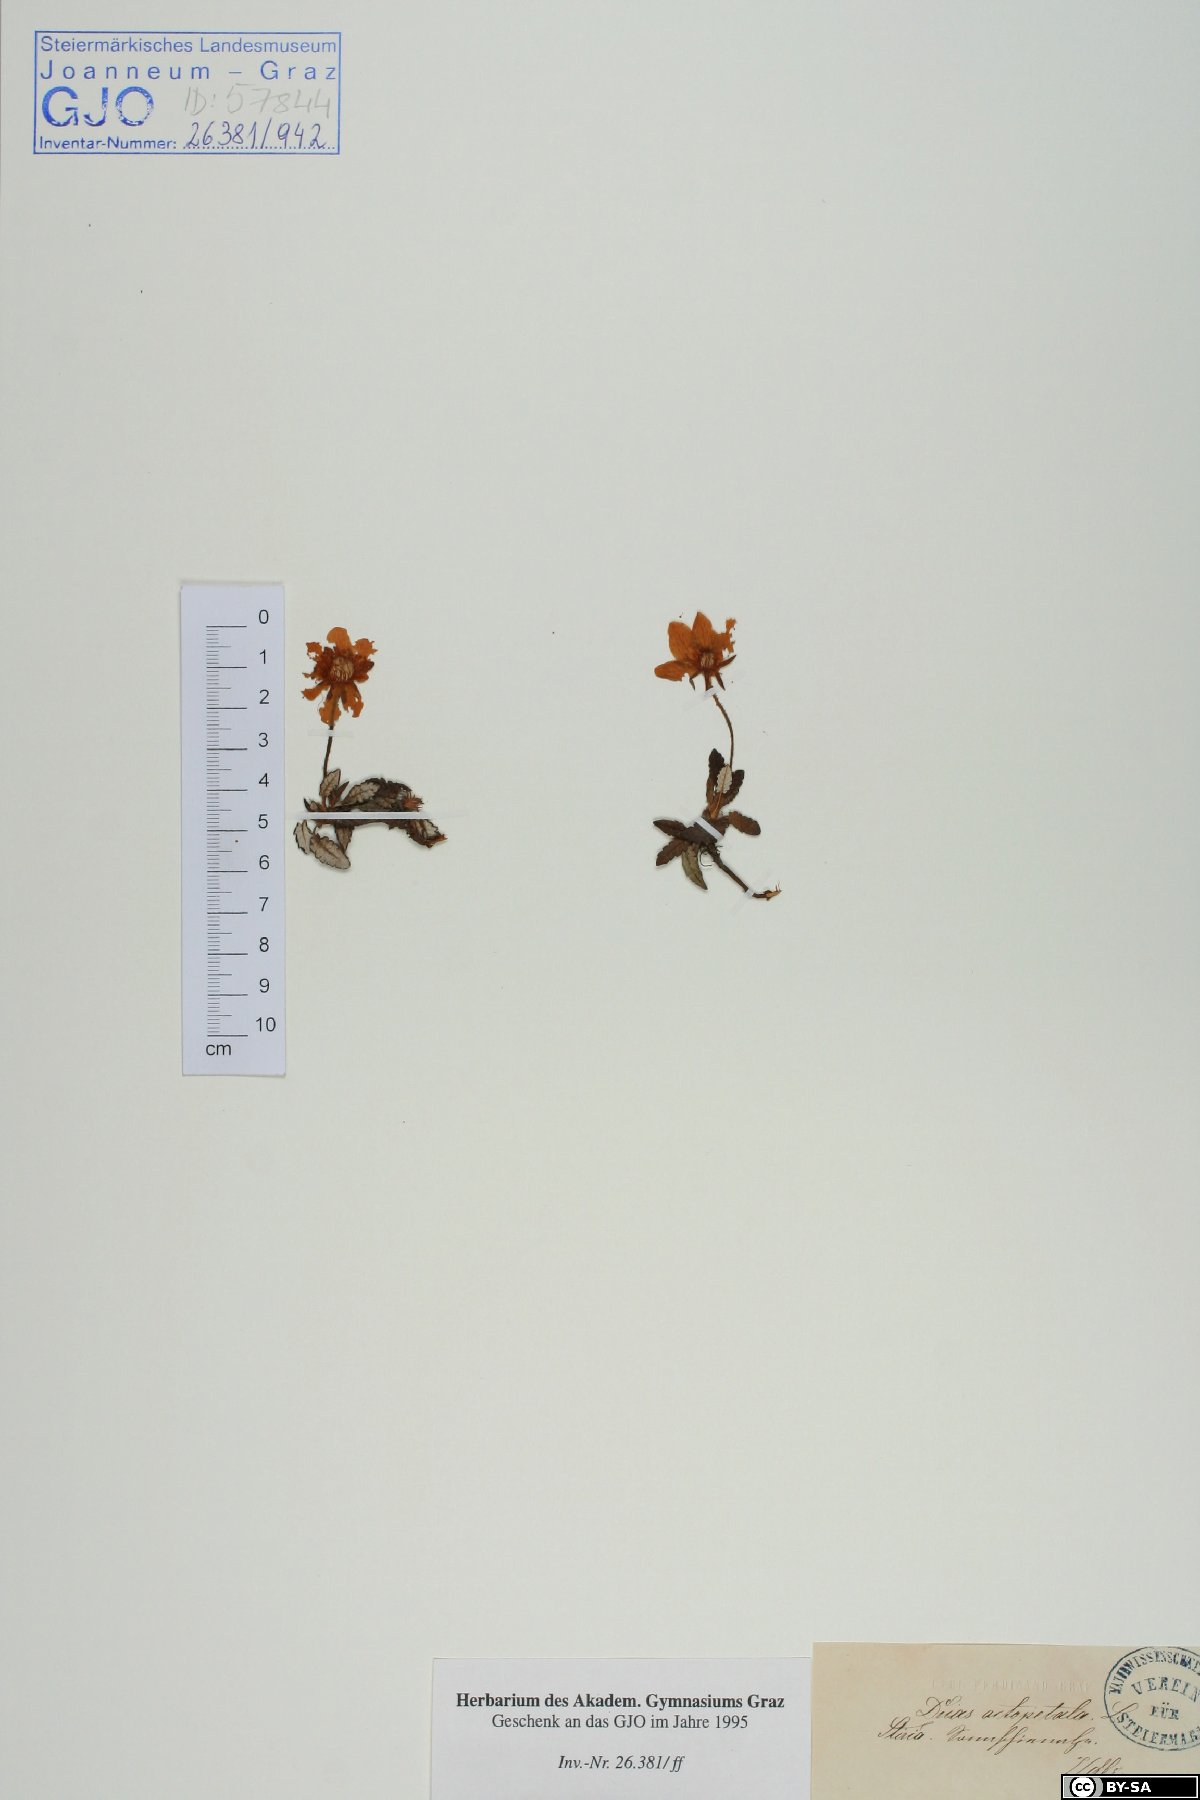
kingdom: Plantae
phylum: Tracheophyta
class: Magnoliopsida
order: Rosales
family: Rosaceae
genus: Dryas
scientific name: Dryas octopetala
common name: Eight-petal mountain-avens
